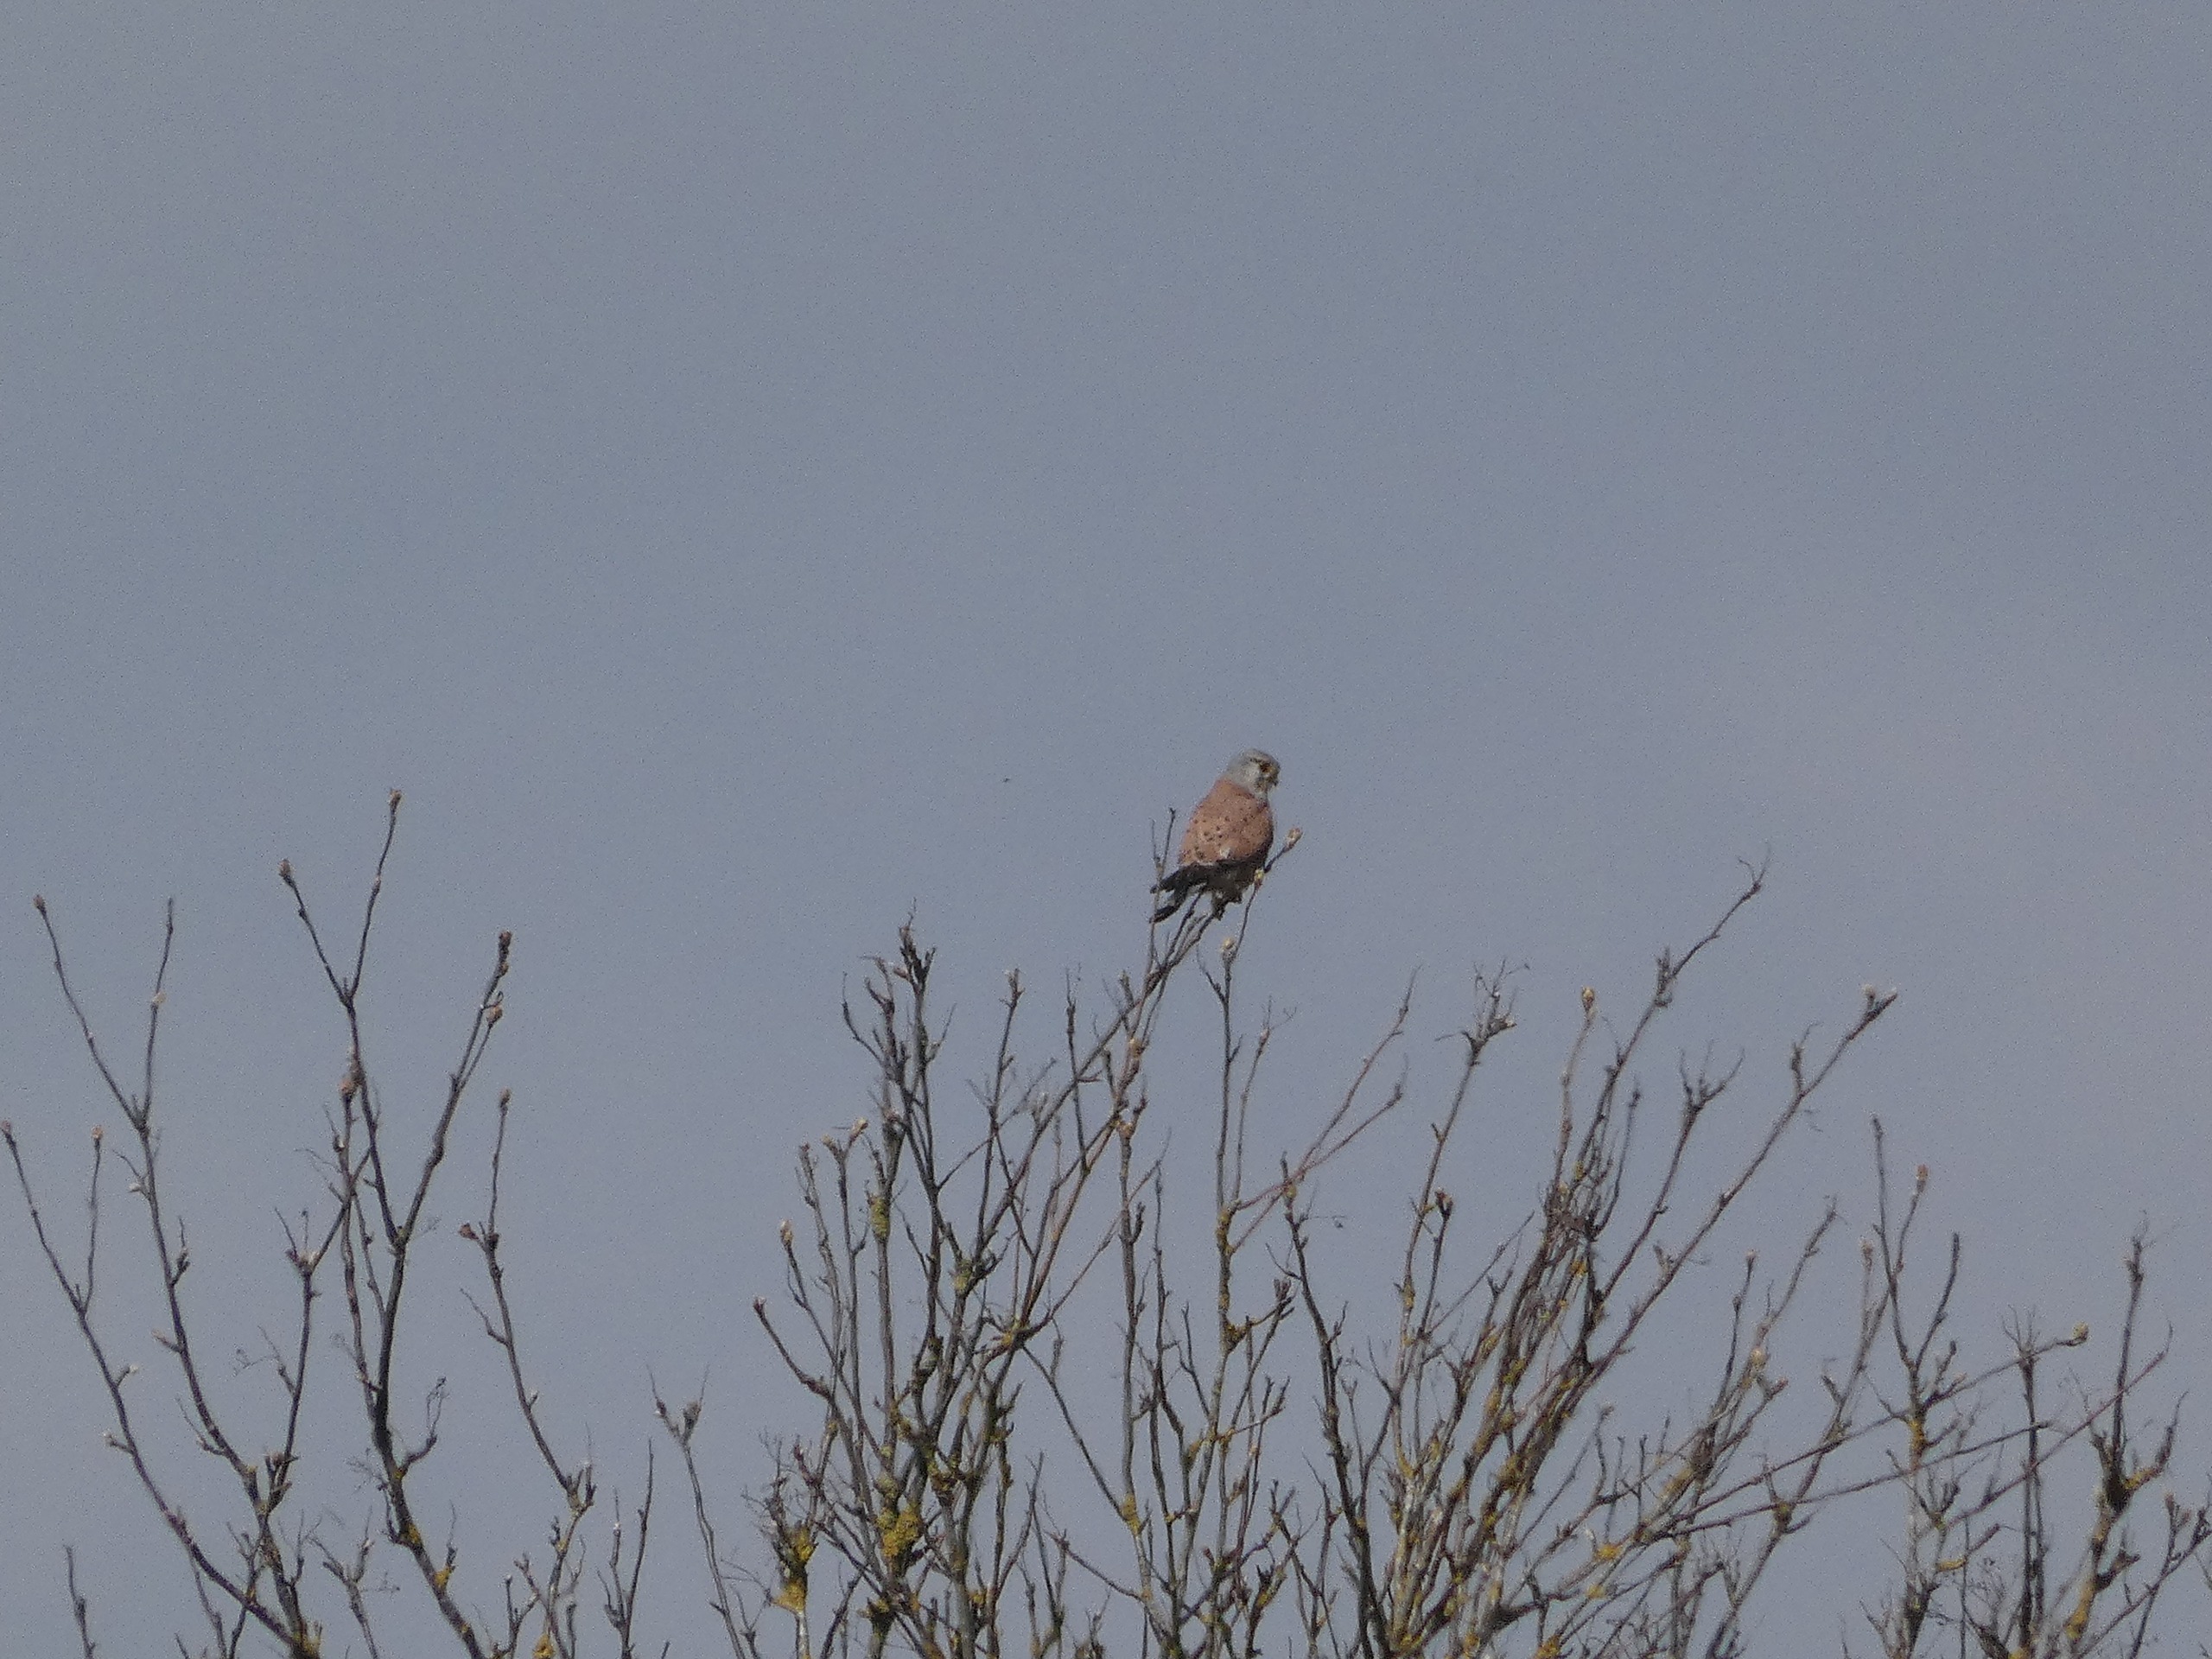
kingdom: Animalia
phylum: Chordata
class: Aves
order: Falconiformes
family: Falconidae
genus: Falco
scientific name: Falco tinnunculus
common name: Tårnfalk
